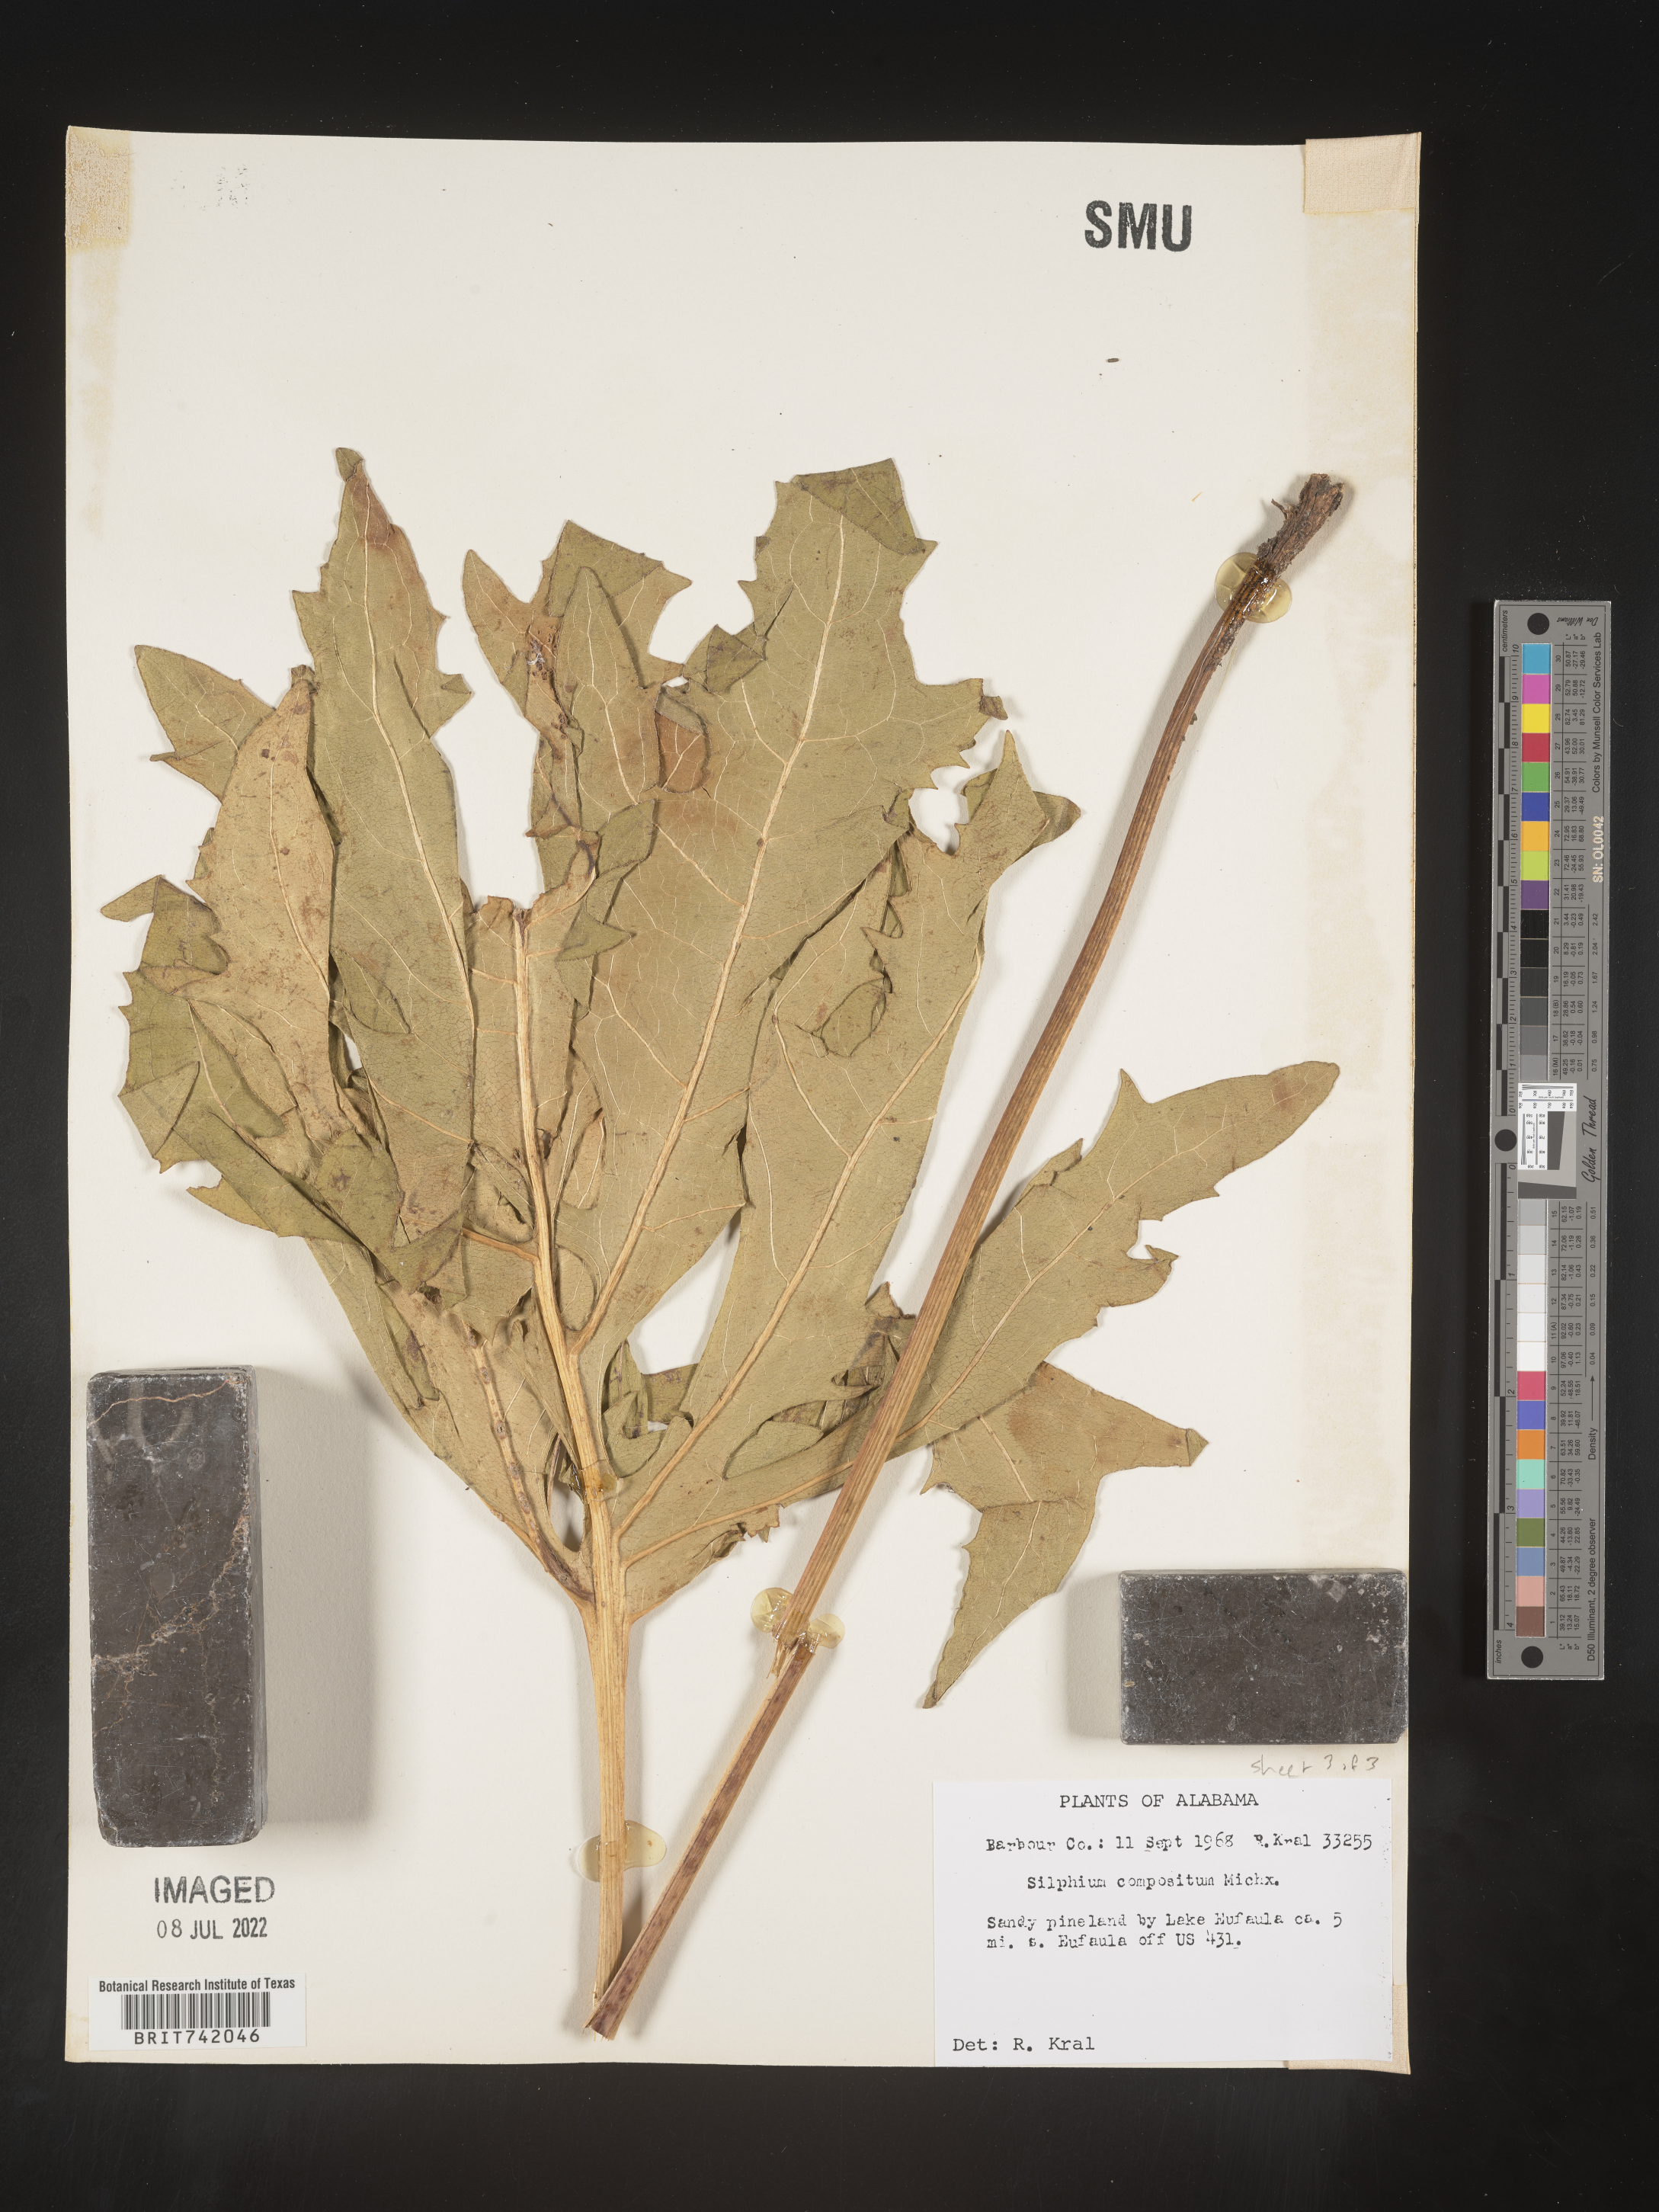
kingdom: Plantae
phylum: Tracheophyta
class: Magnoliopsida
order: Asterales
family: Asteraceae
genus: Silphium
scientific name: Silphium compositum
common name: Lesser basal-leaf rosinweed
